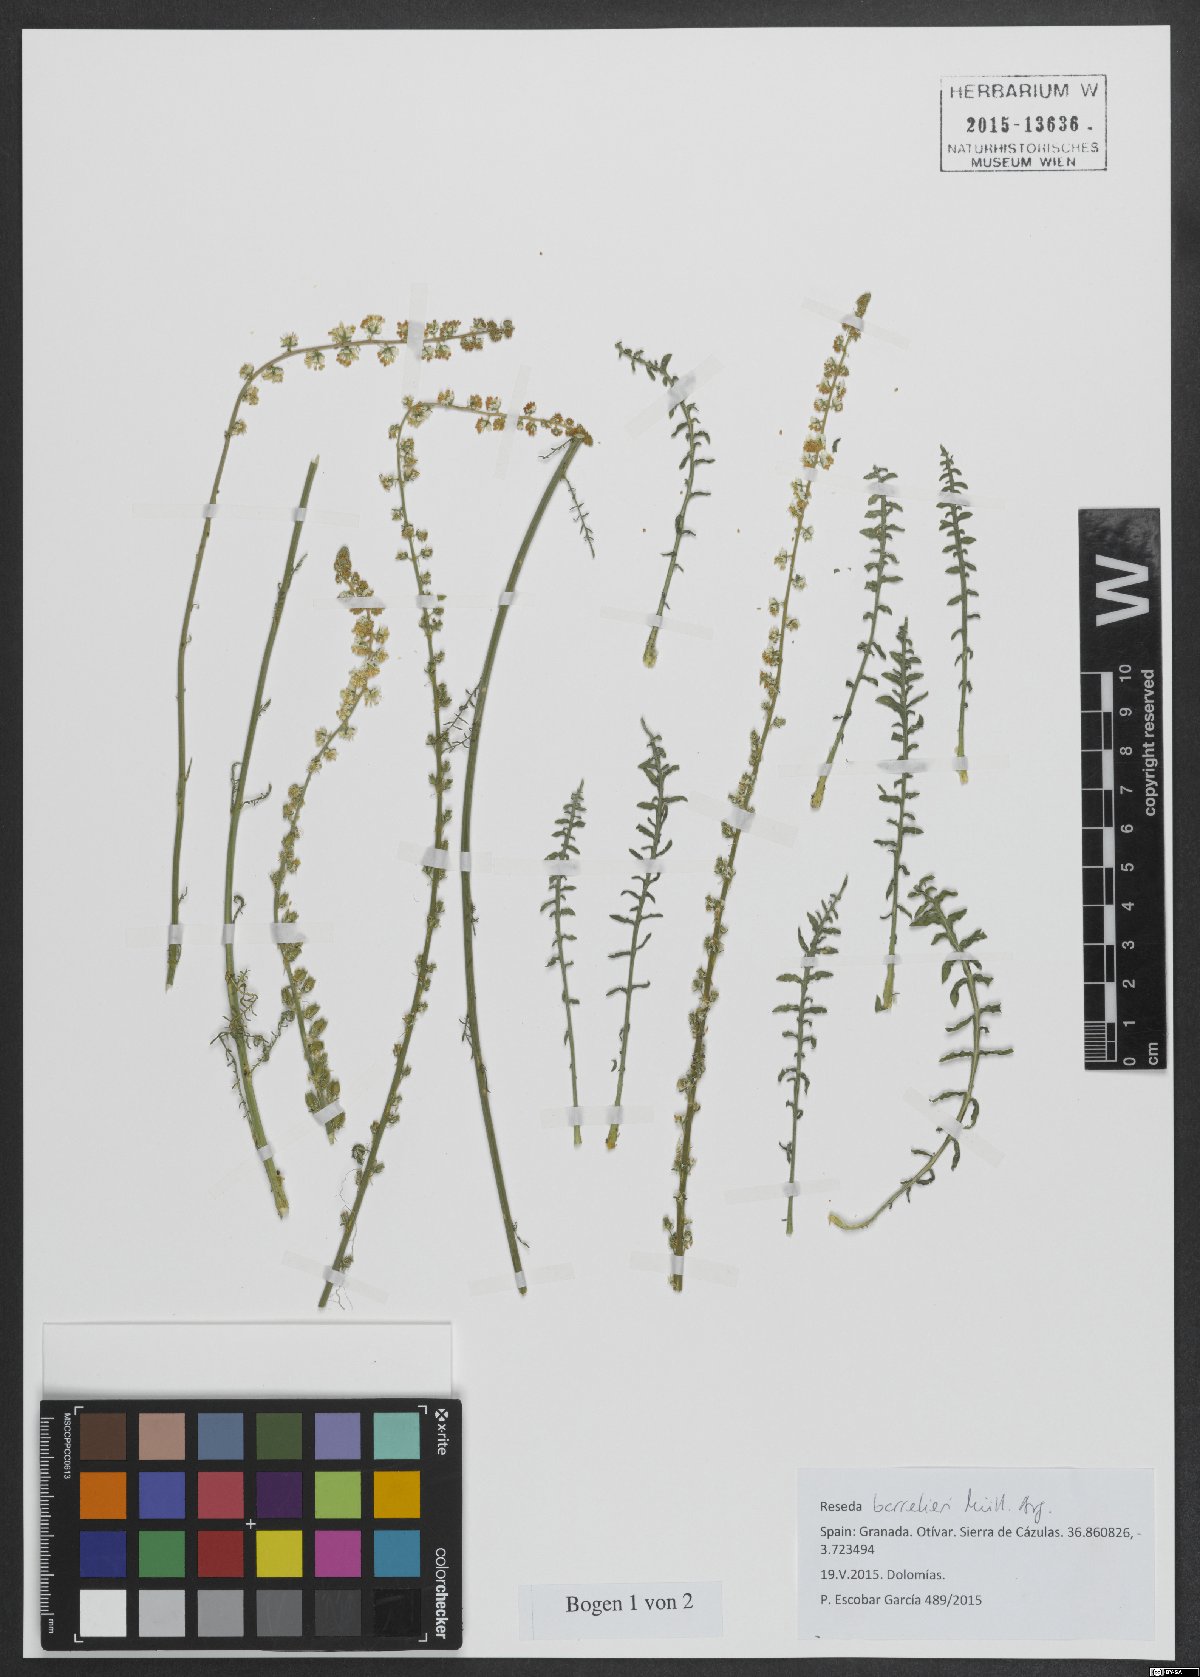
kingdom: Plantae
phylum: Tracheophyta
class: Magnoliopsida
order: Brassicales
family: Resedaceae
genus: Reseda
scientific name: Reseda barrelieri
